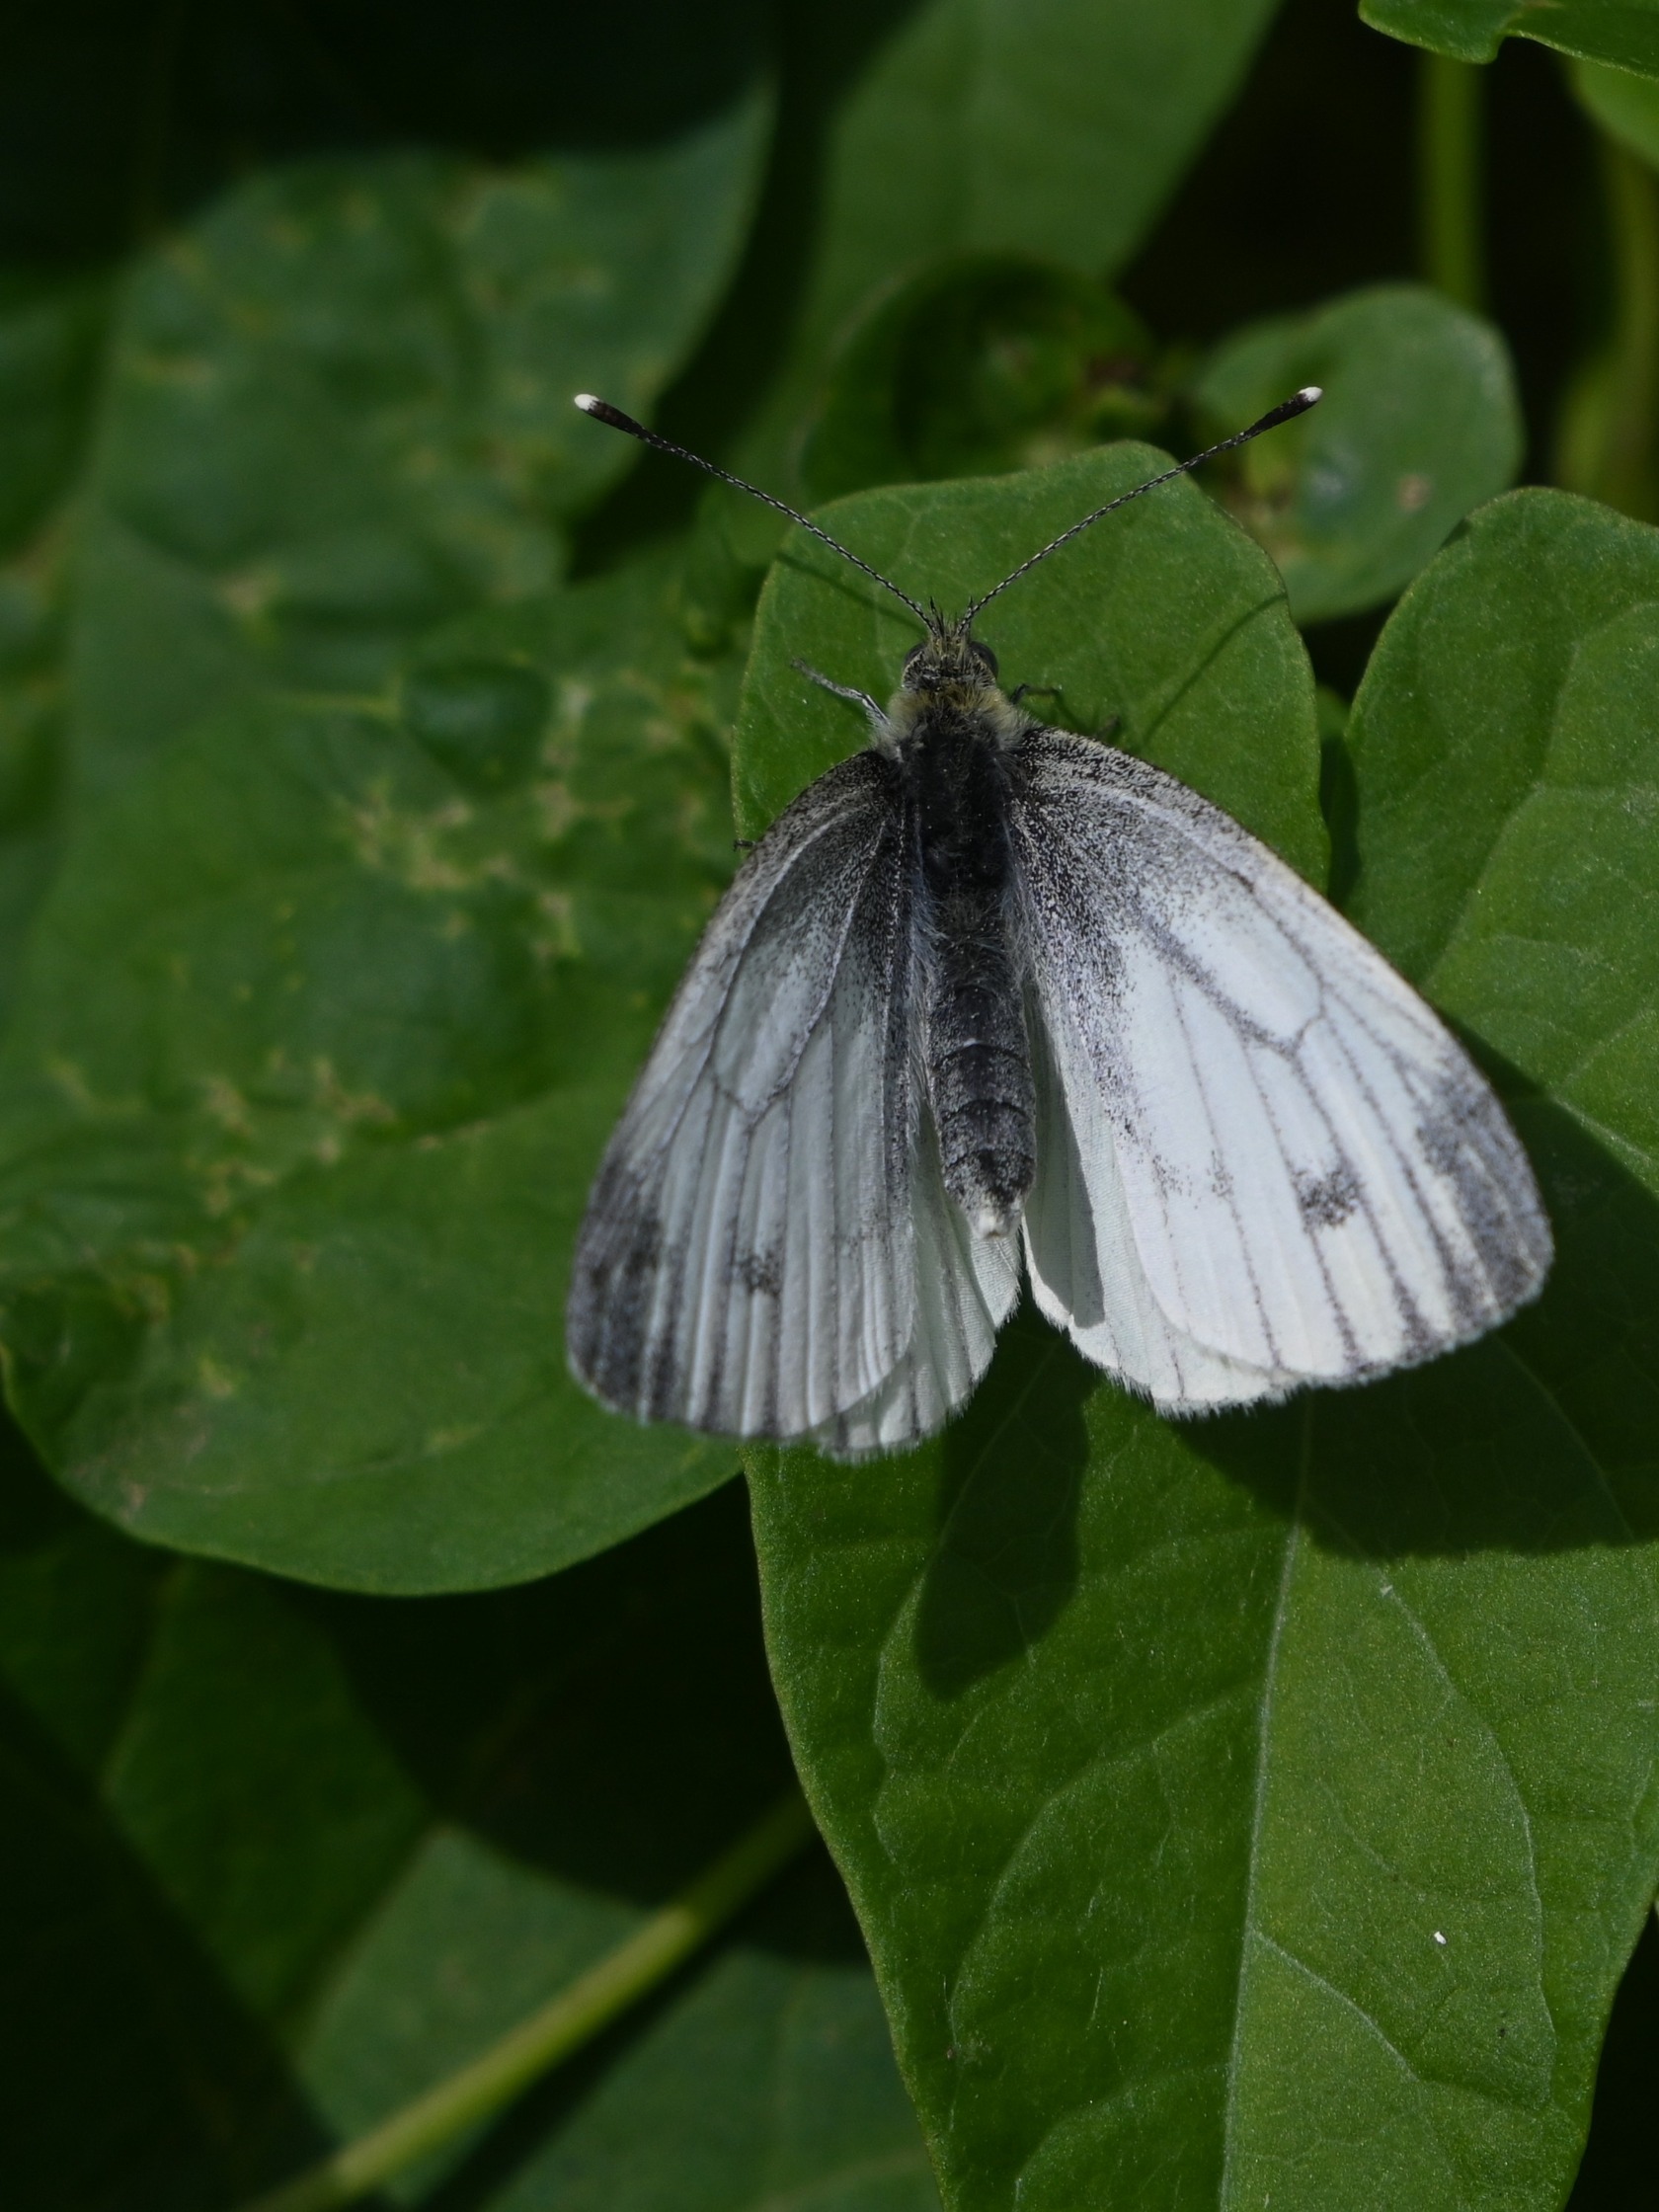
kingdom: Animalia
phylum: Arthropoda
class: Insecta
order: Lepidoptera
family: Pieridae
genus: Pieris
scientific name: Pieris napi
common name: Grønåret kålsommerfugl
